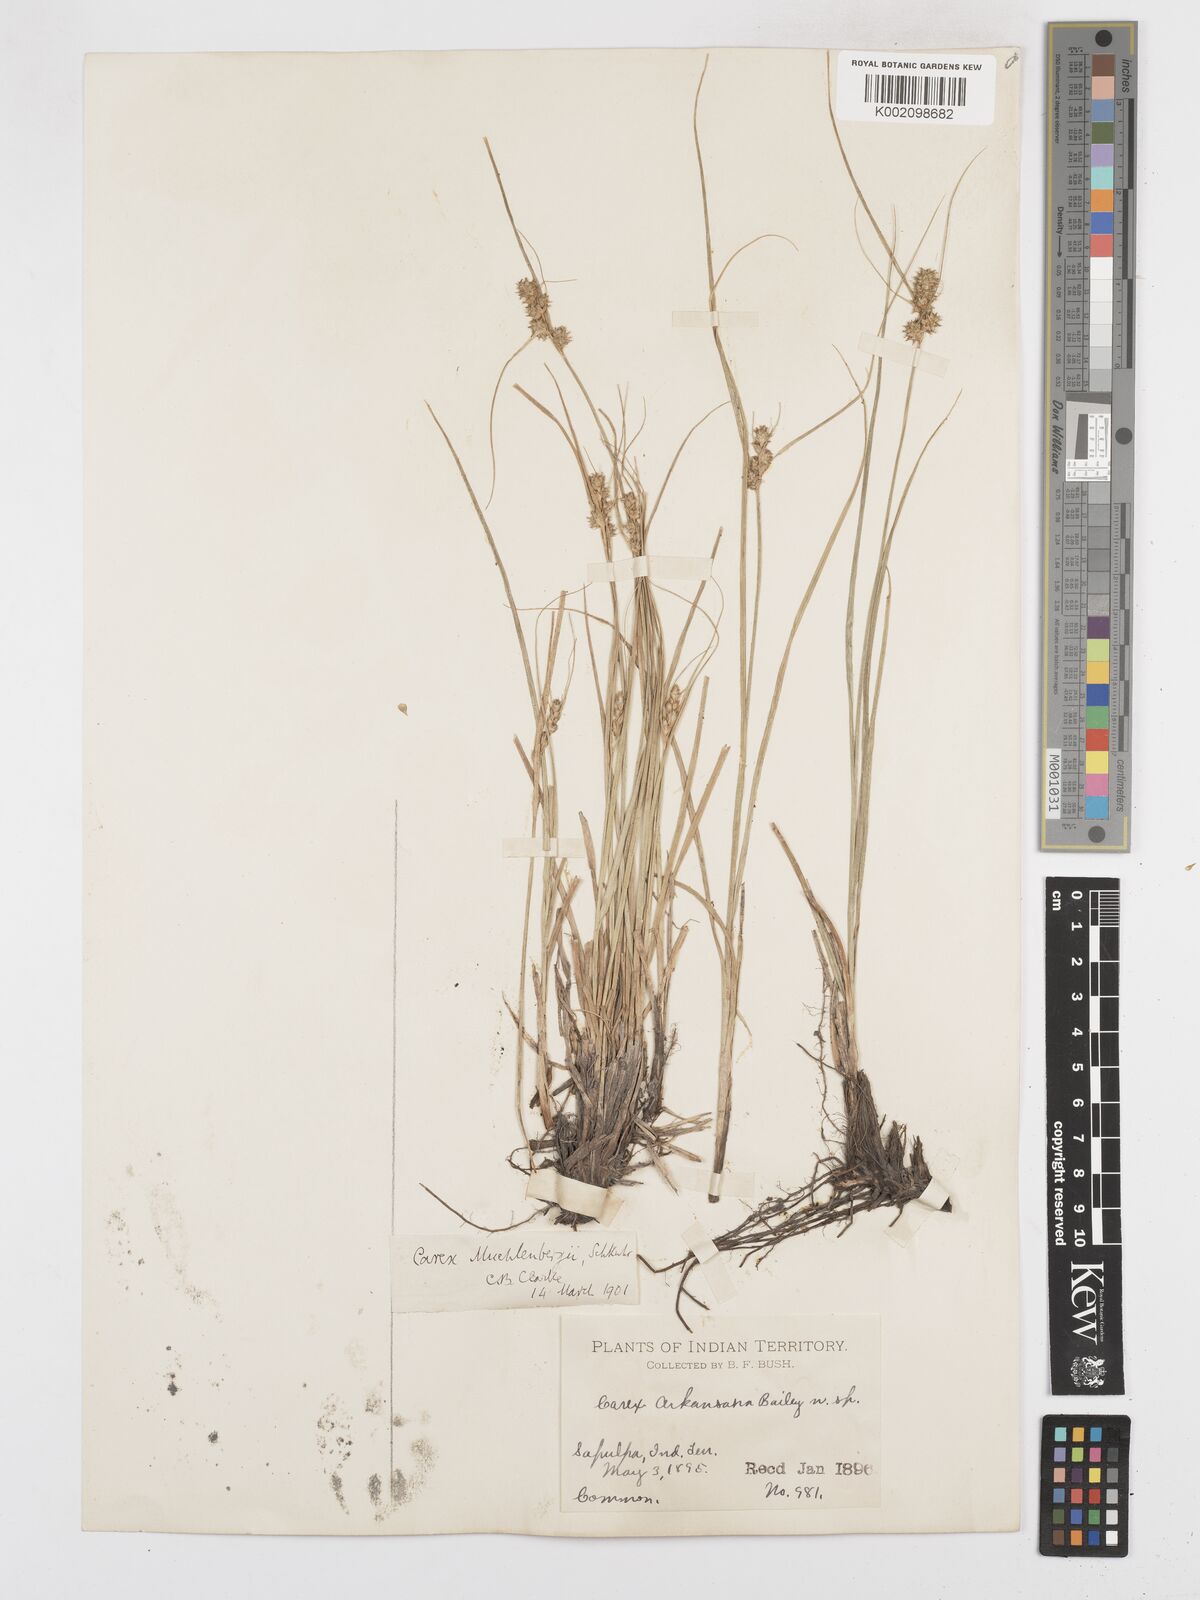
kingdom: Plantae
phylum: Tracheophyta
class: Liliopsida
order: Poales
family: Cyperaceae
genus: Carex
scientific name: Carex arkansana
